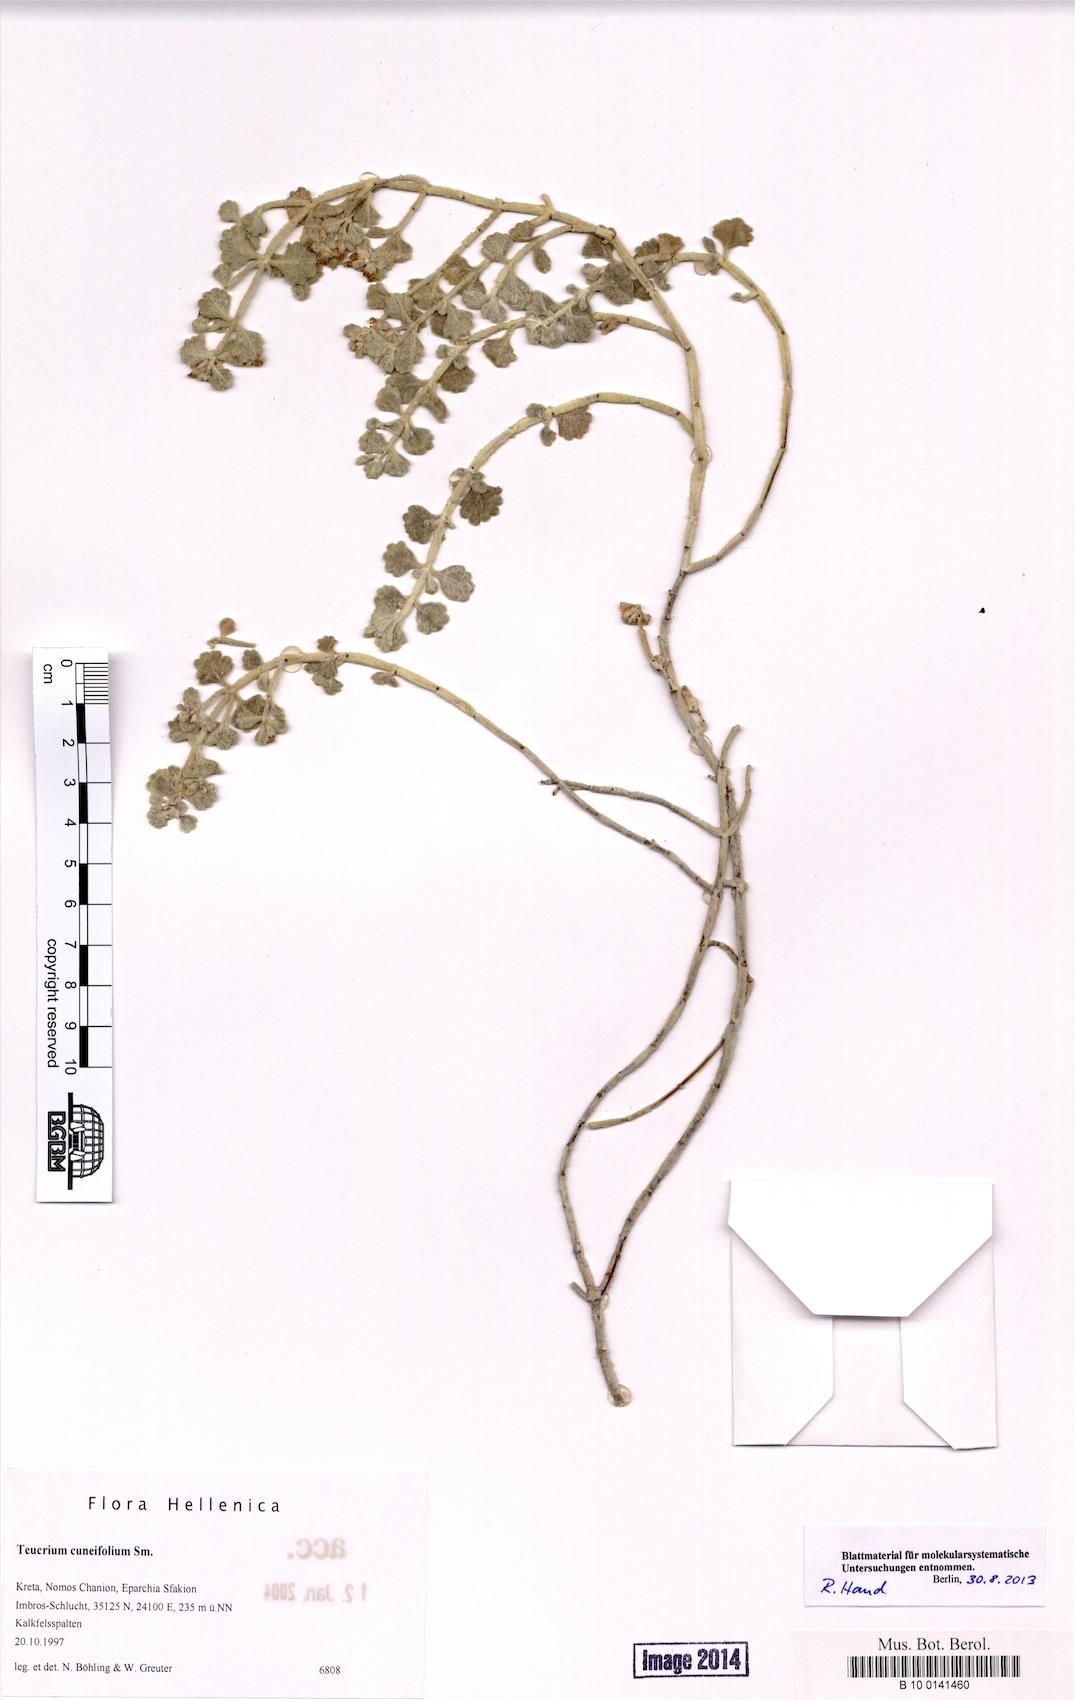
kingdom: Plantae
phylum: Tracheophyta
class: Magnoliopsida
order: Lamiales
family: Lamiaceae
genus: Teucrium
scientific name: Teucrium cuneifolium
